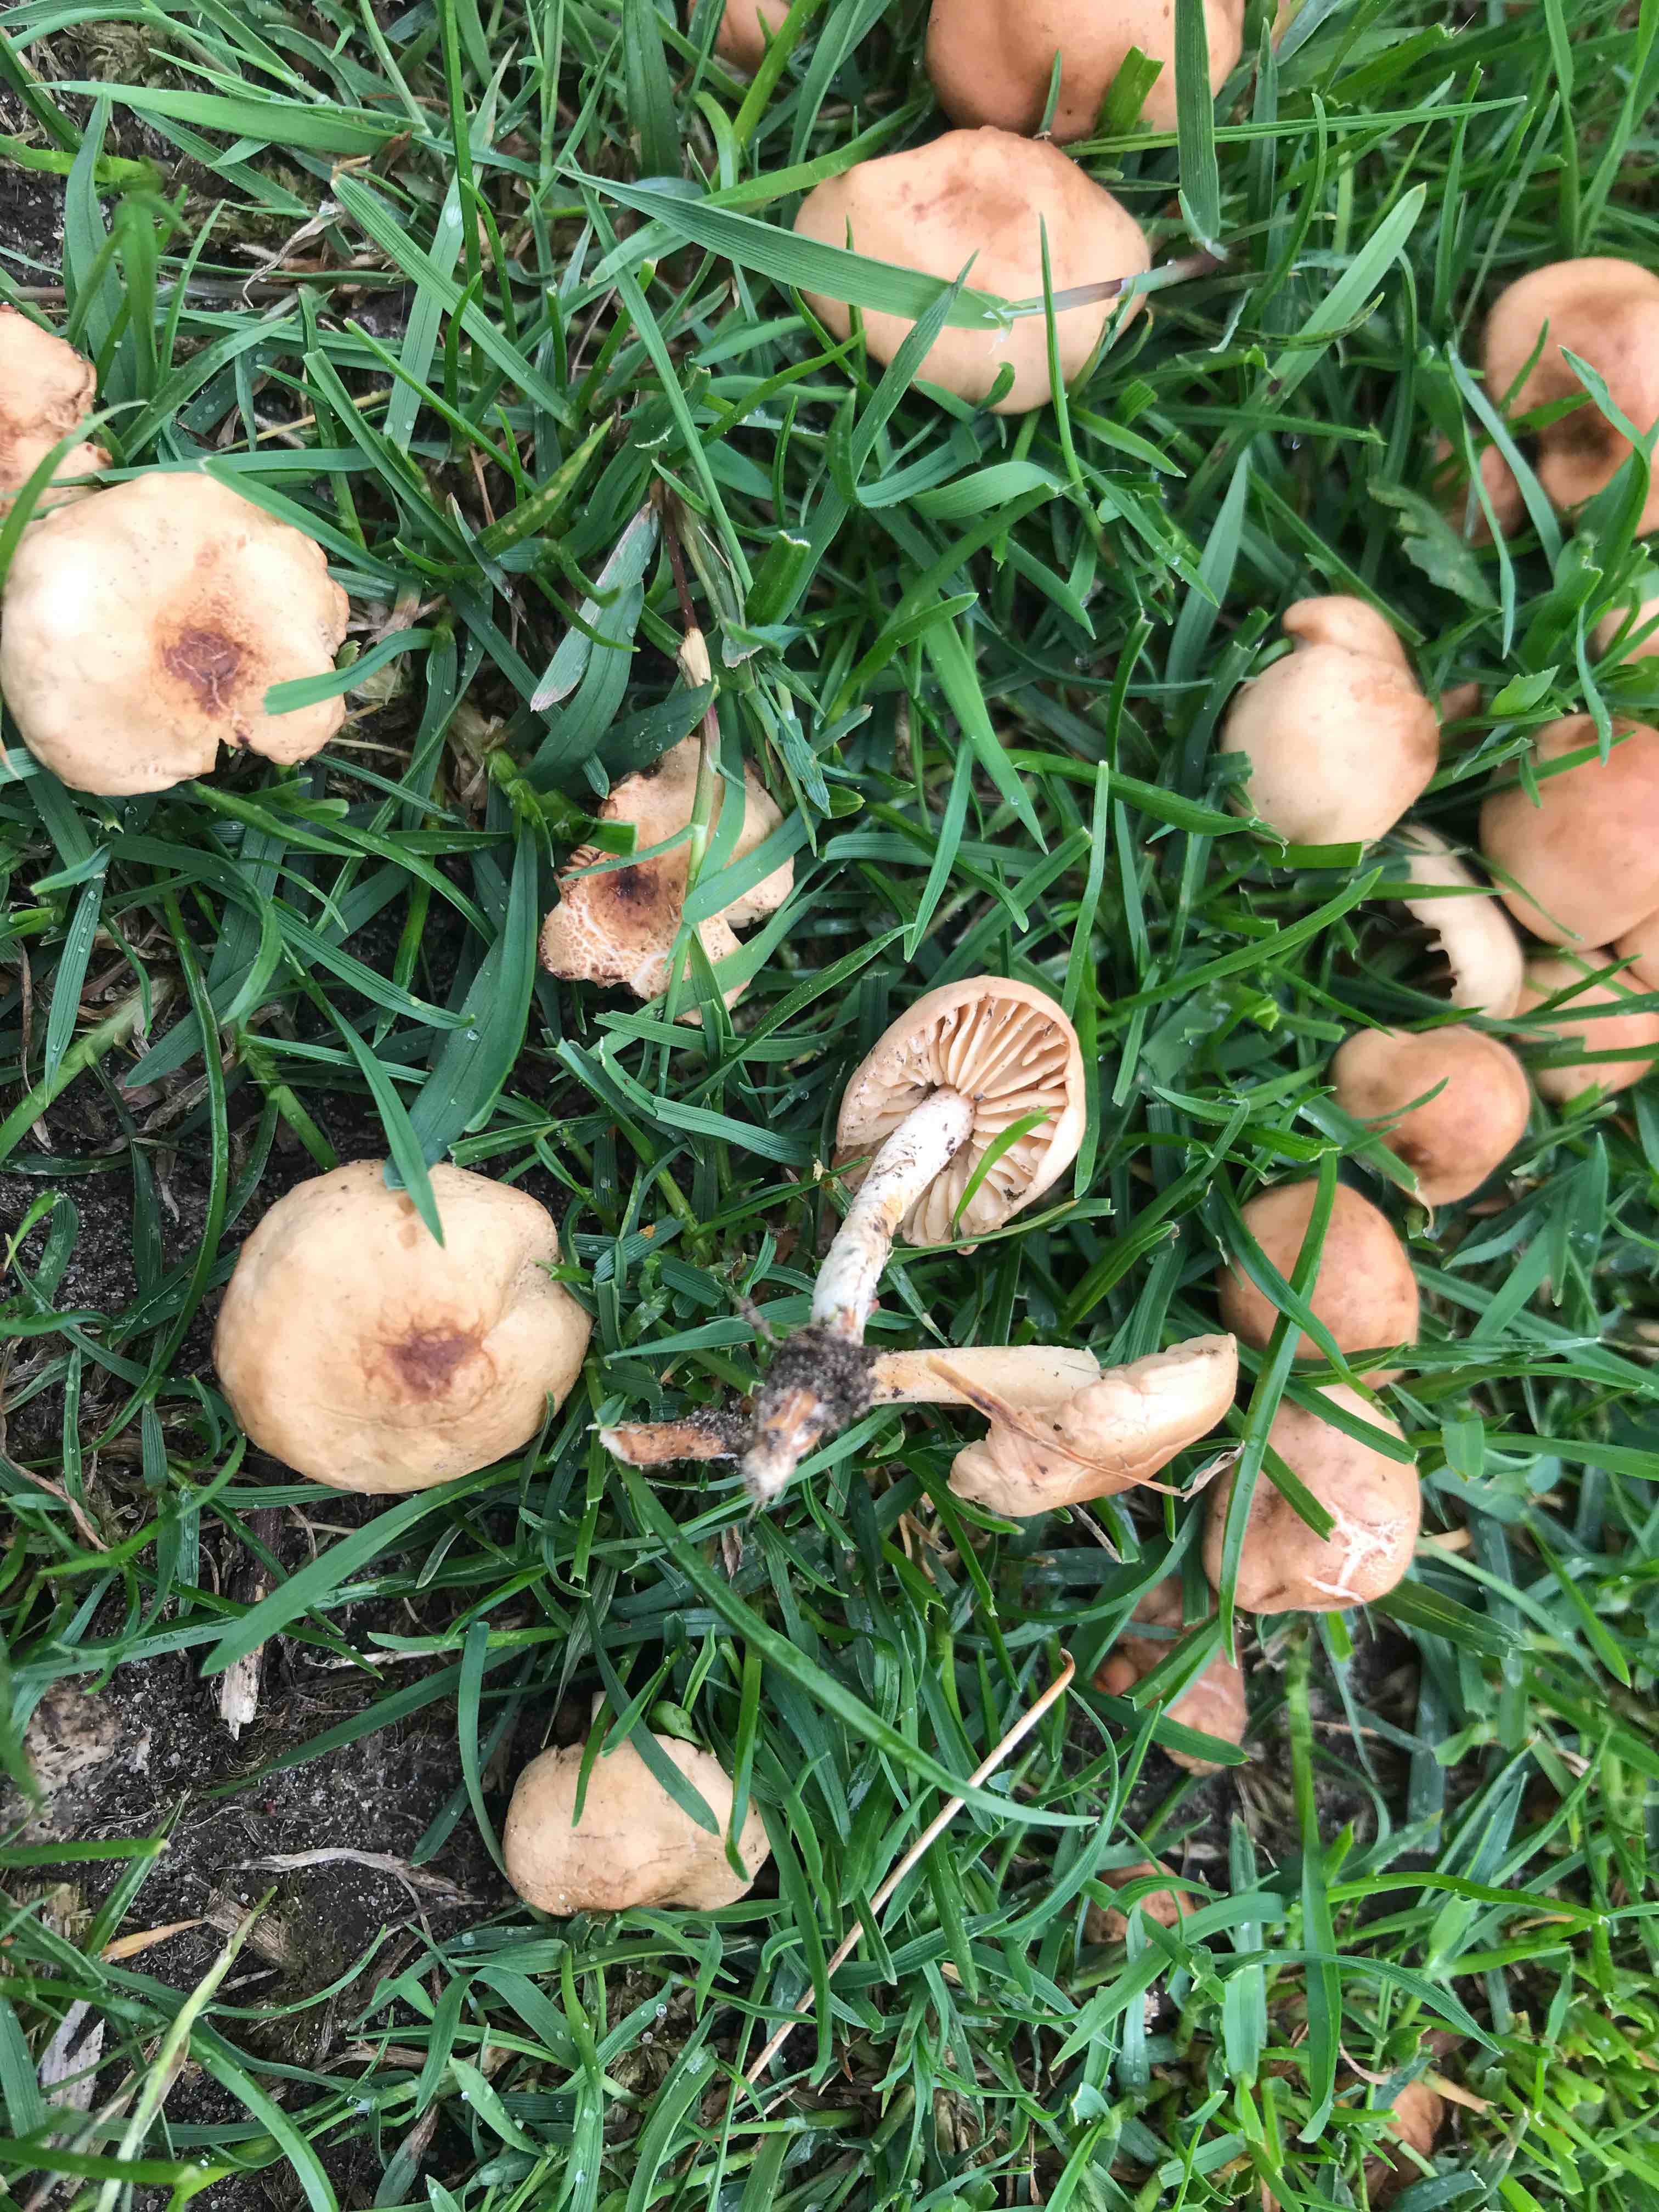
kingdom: Fungi
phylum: Basidiomycota
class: Agaricomycetes
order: Agaricales
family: Marasmiaceae
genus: Marasmius
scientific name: Marasmius oreades
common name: elledans-bruskhat
